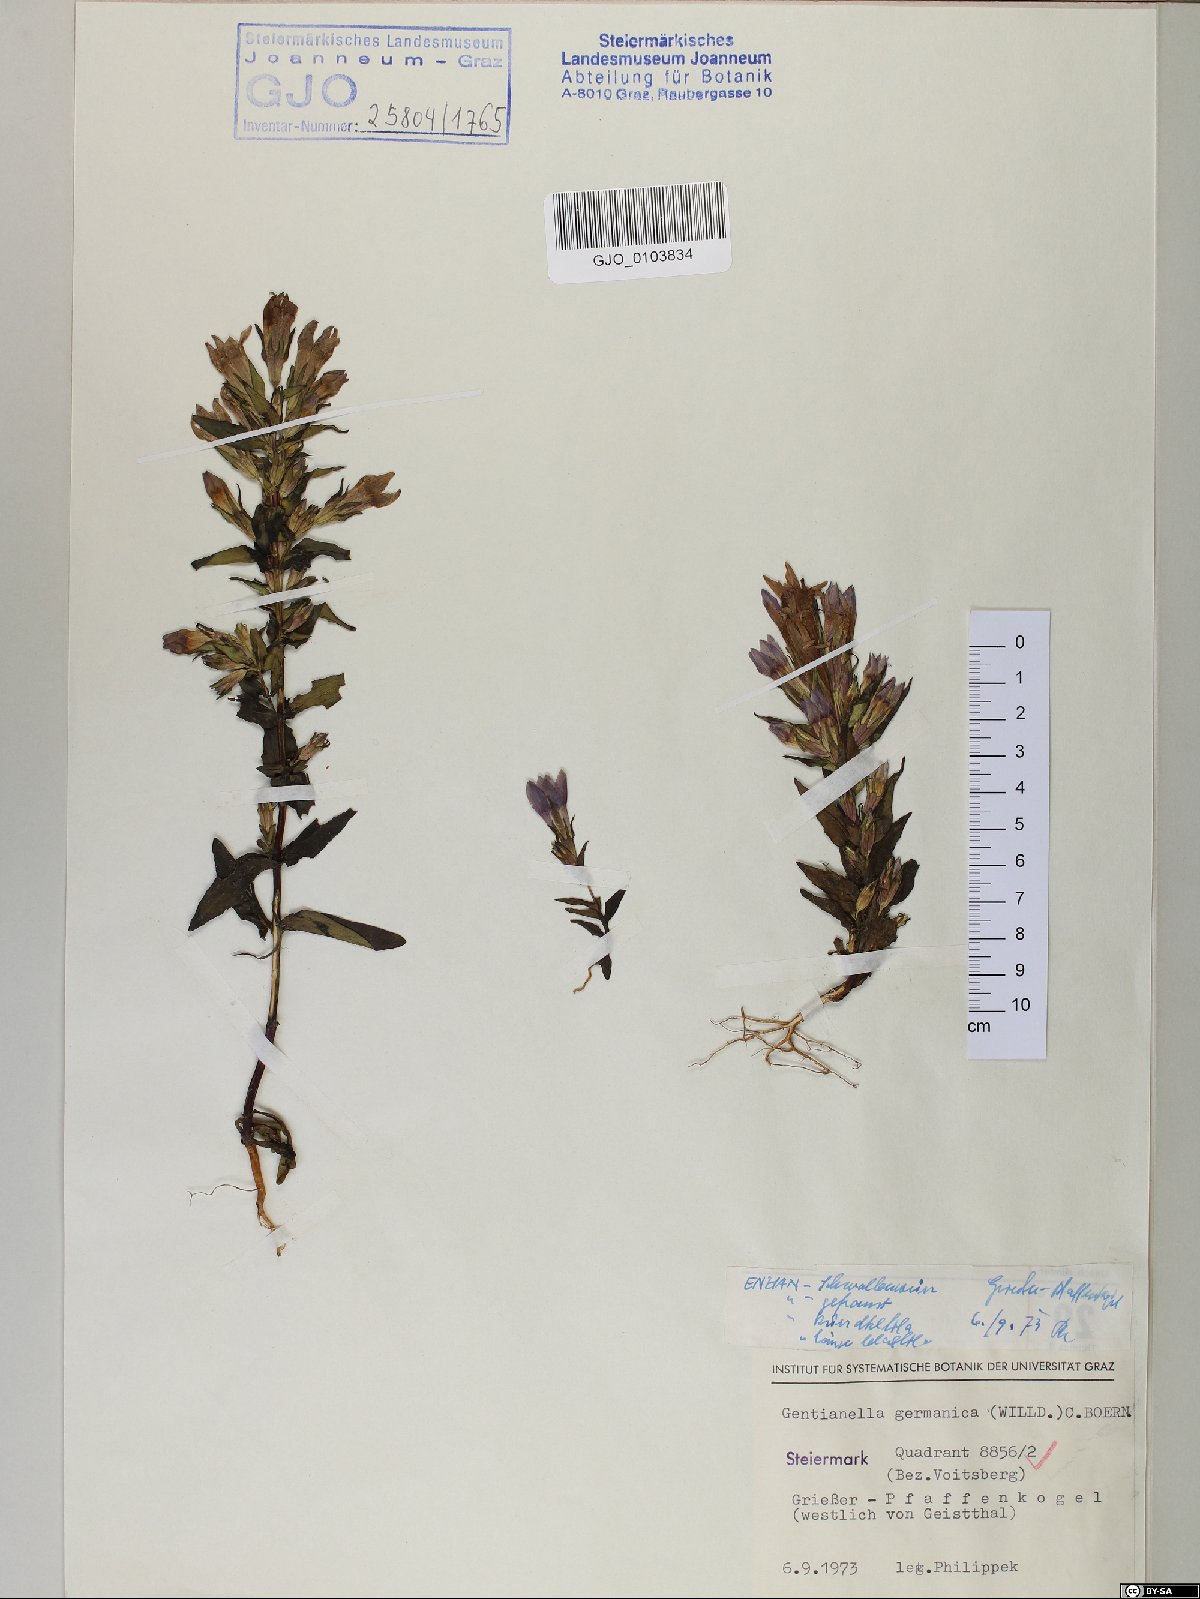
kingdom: Plantae
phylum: Tracheophyta
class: Magnoliopsida
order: Gentianales
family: Gentianaceae
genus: Gentianella
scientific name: Gentianella germanica
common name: Chiltern-gentian
